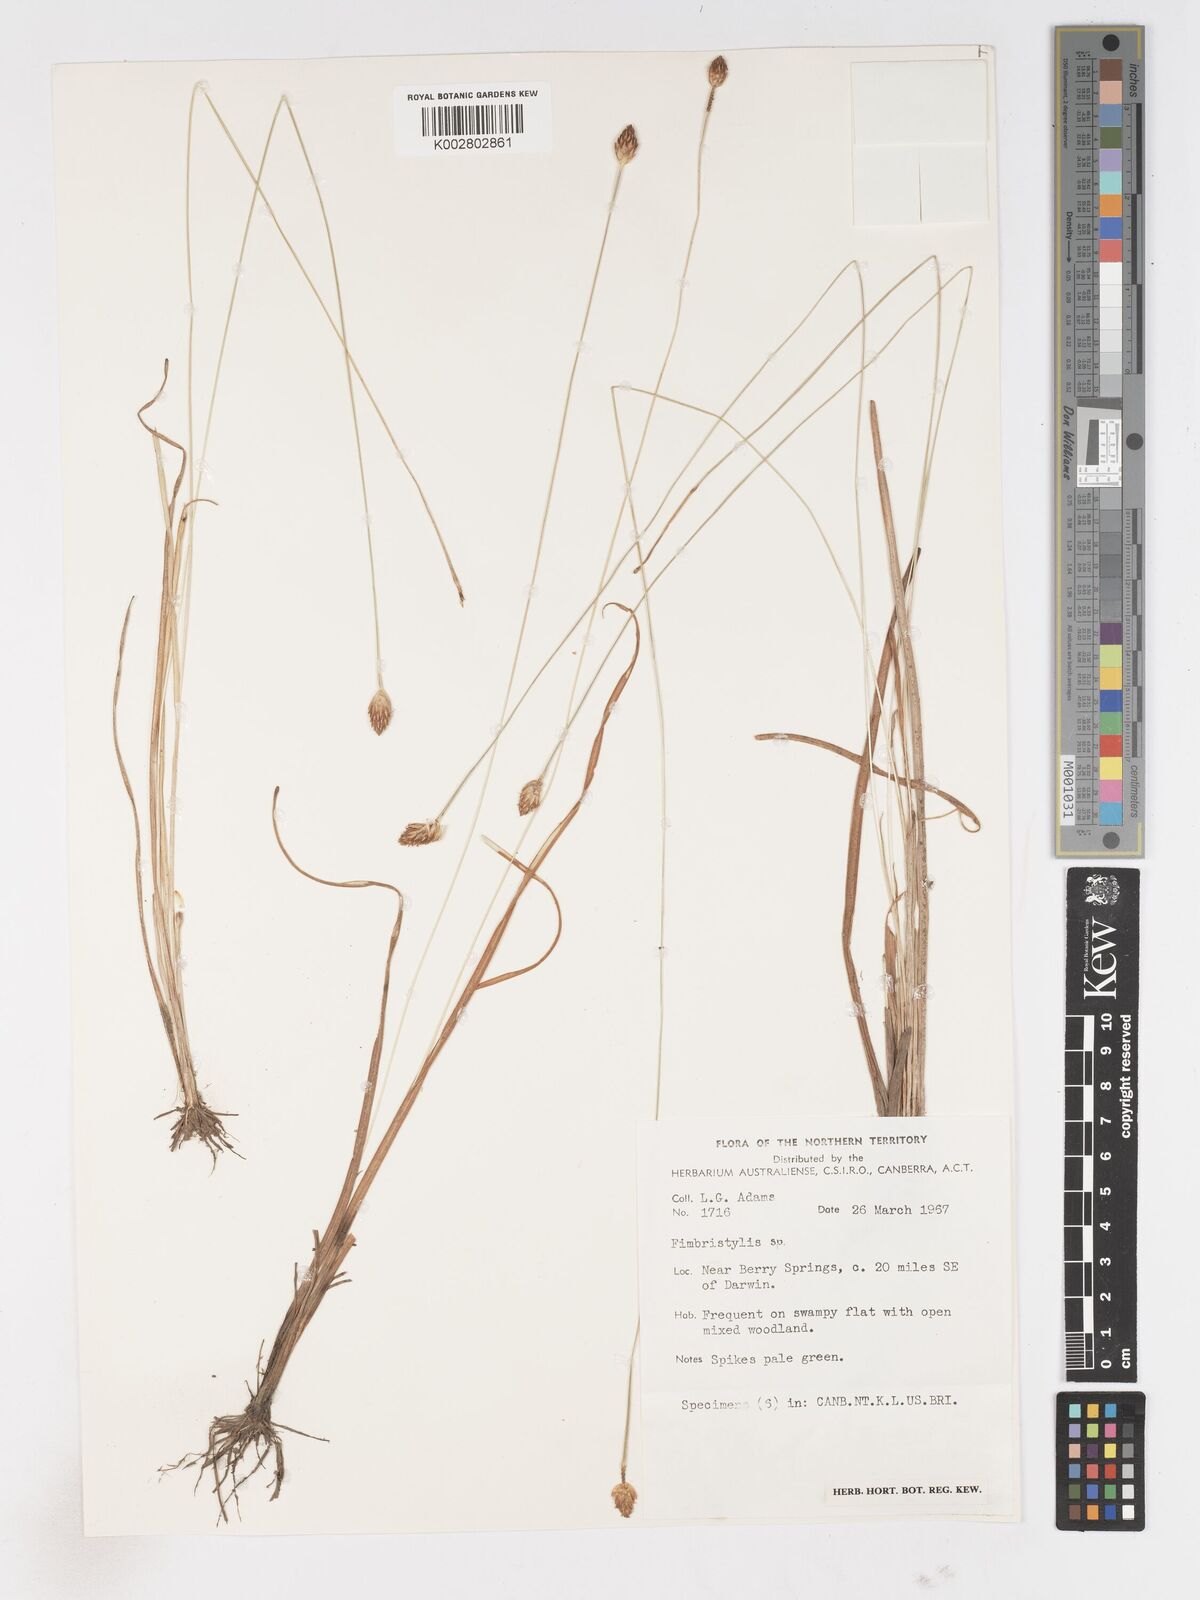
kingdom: Plantae
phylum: Tracheophyta
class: Liliopsida
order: Poales
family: Cyperaceae
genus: Fimbristylis
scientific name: Fimbristylis recta
